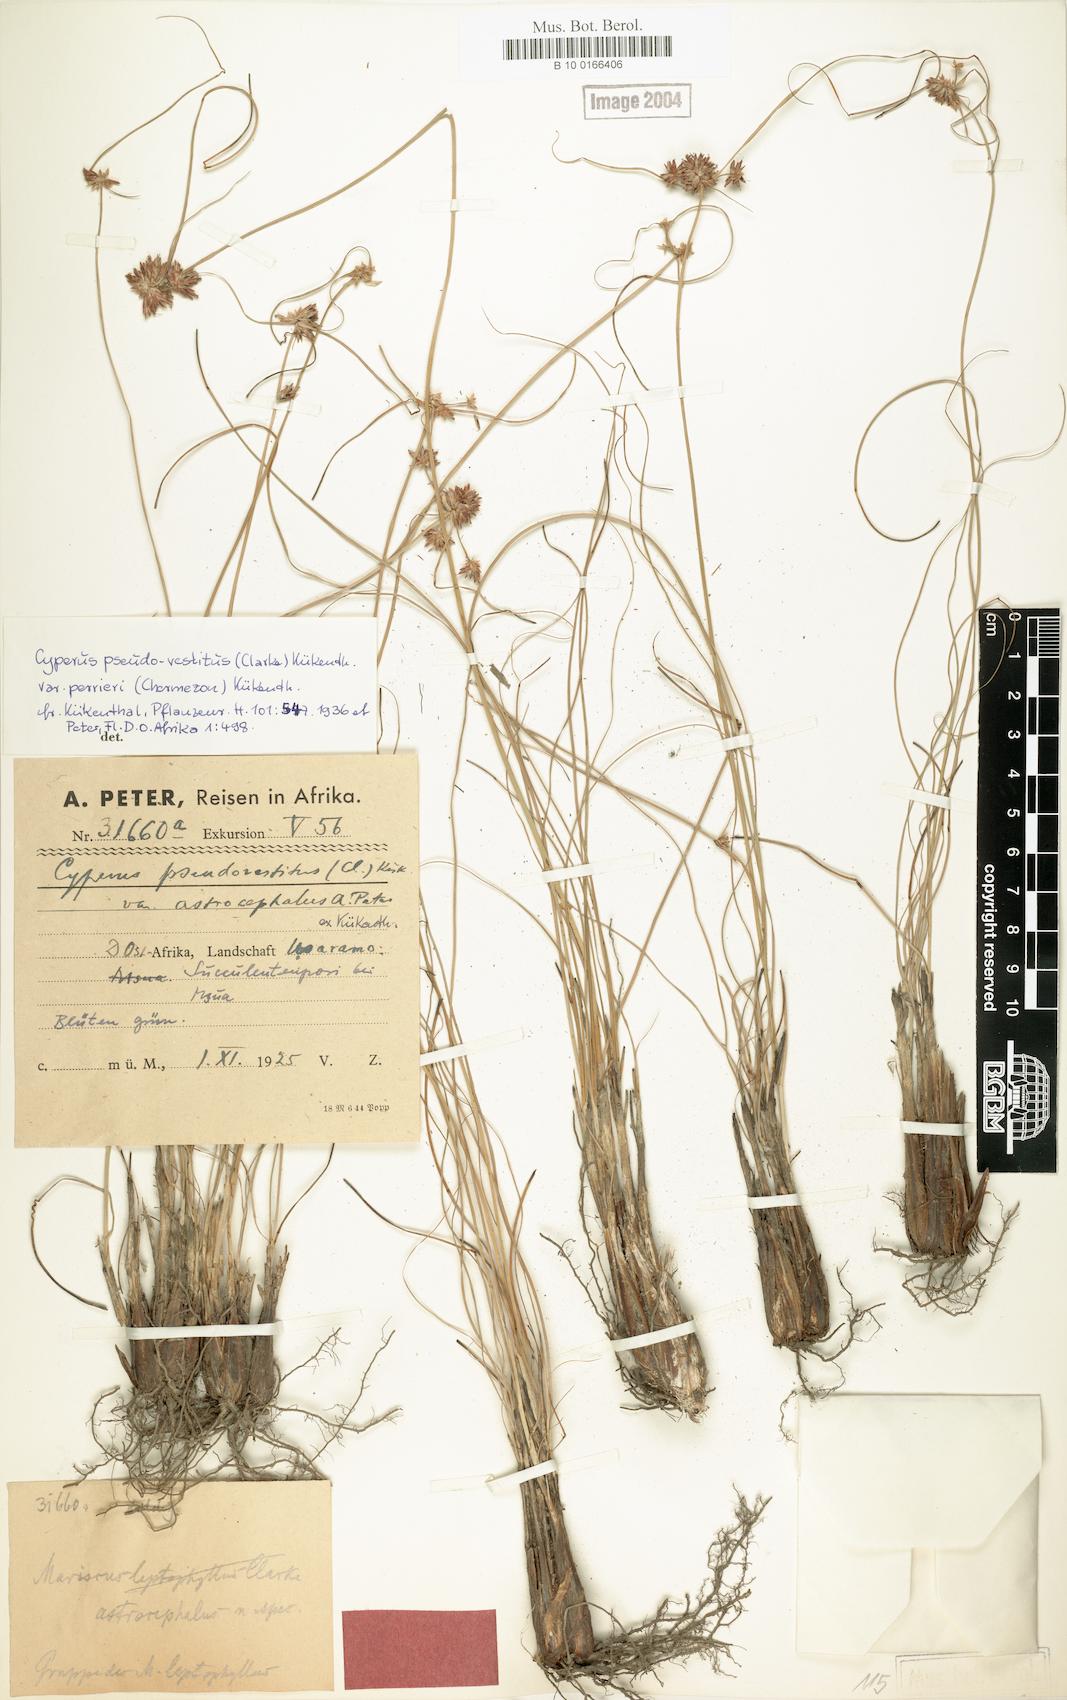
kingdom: Plantae
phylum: Tracheophyta
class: Liliopsida
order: Poales
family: Cyperaceae
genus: Cyperus
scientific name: Cyperus perrieri
